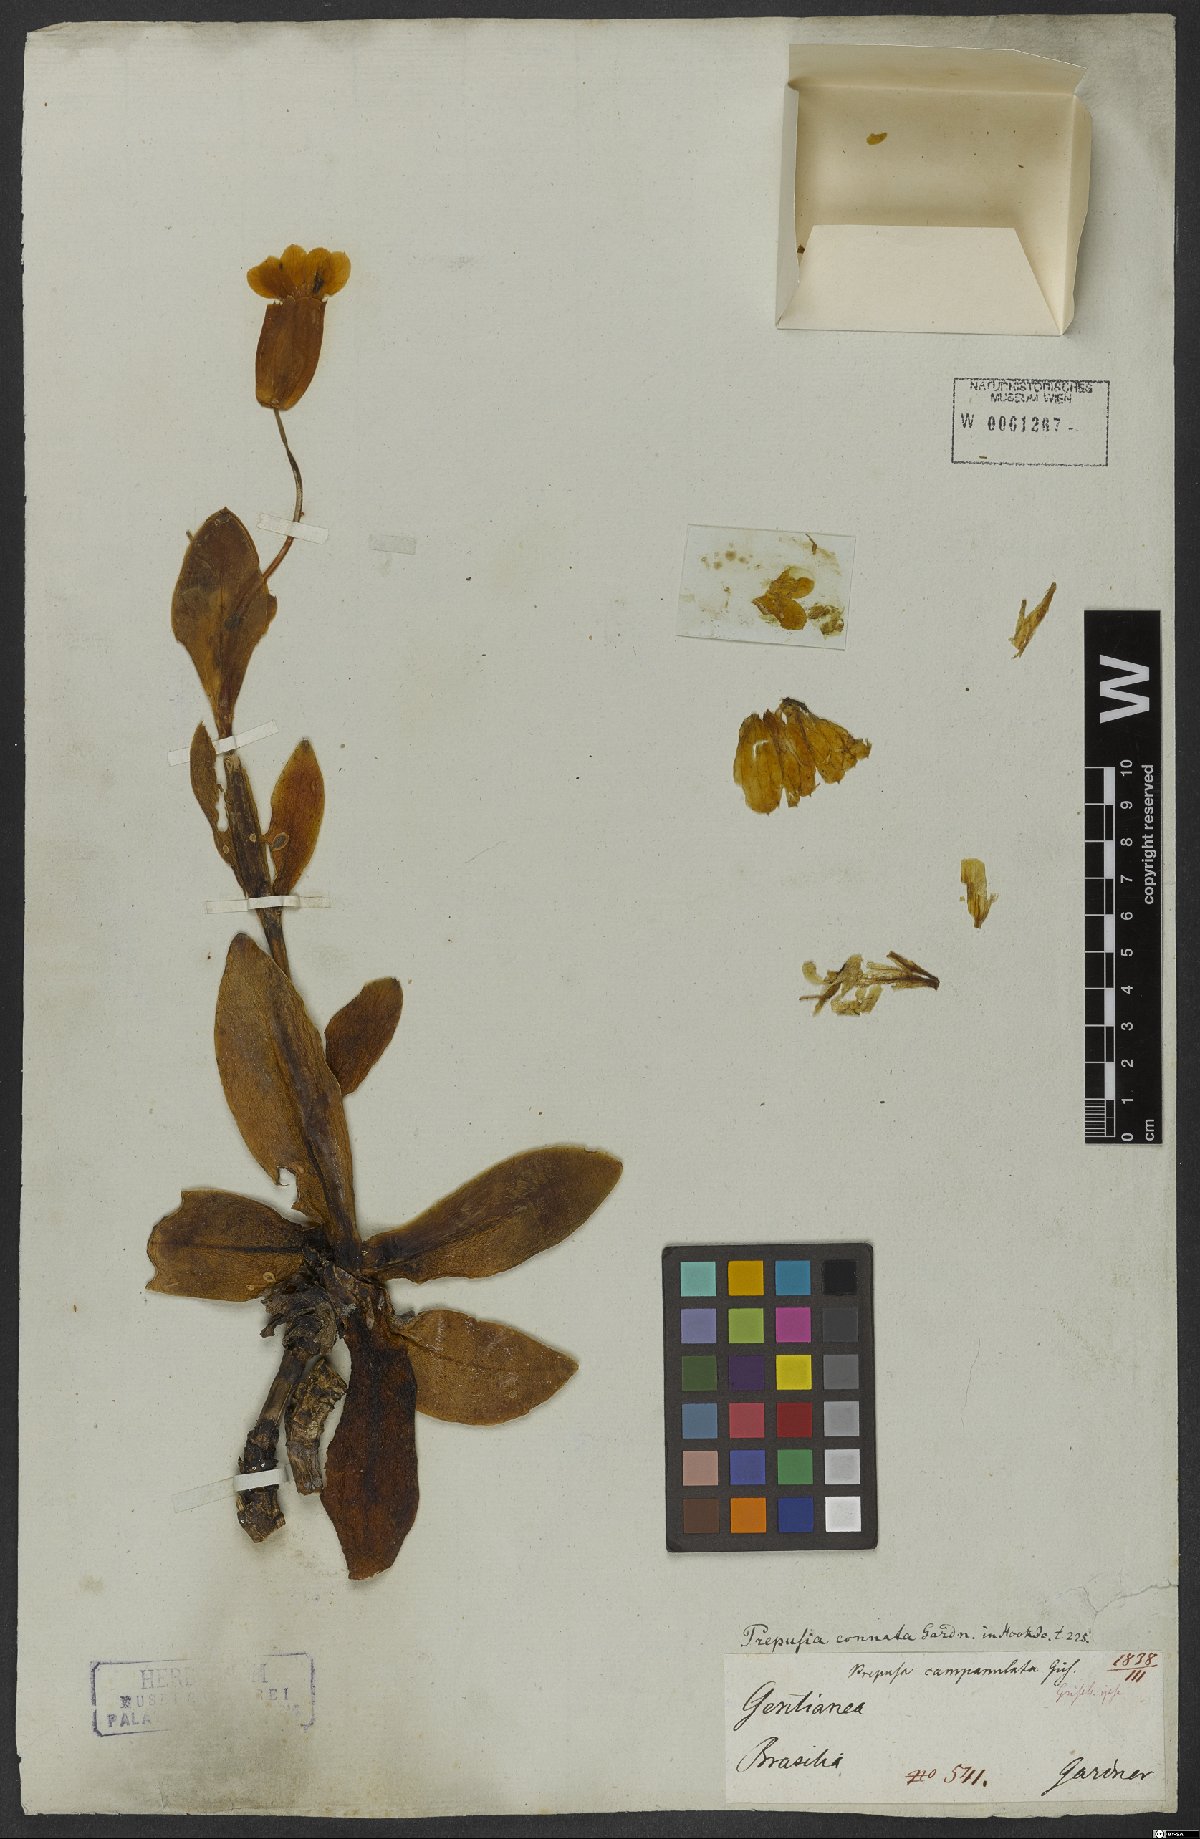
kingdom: Plantae
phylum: Tracheophyta
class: Magnoliopsida
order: Gentianales
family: Gentianaceae
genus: Prepusa
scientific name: Prepusa connata
